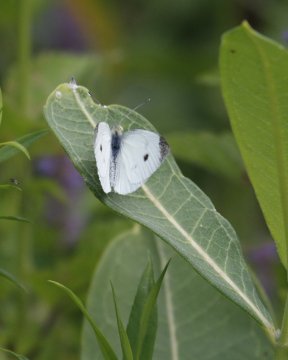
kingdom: Animalia
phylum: Arthropoda
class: Insecta
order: Lepidoptera
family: Pieridae
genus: Pieris
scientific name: Pieris rapae
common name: Cabbage White
